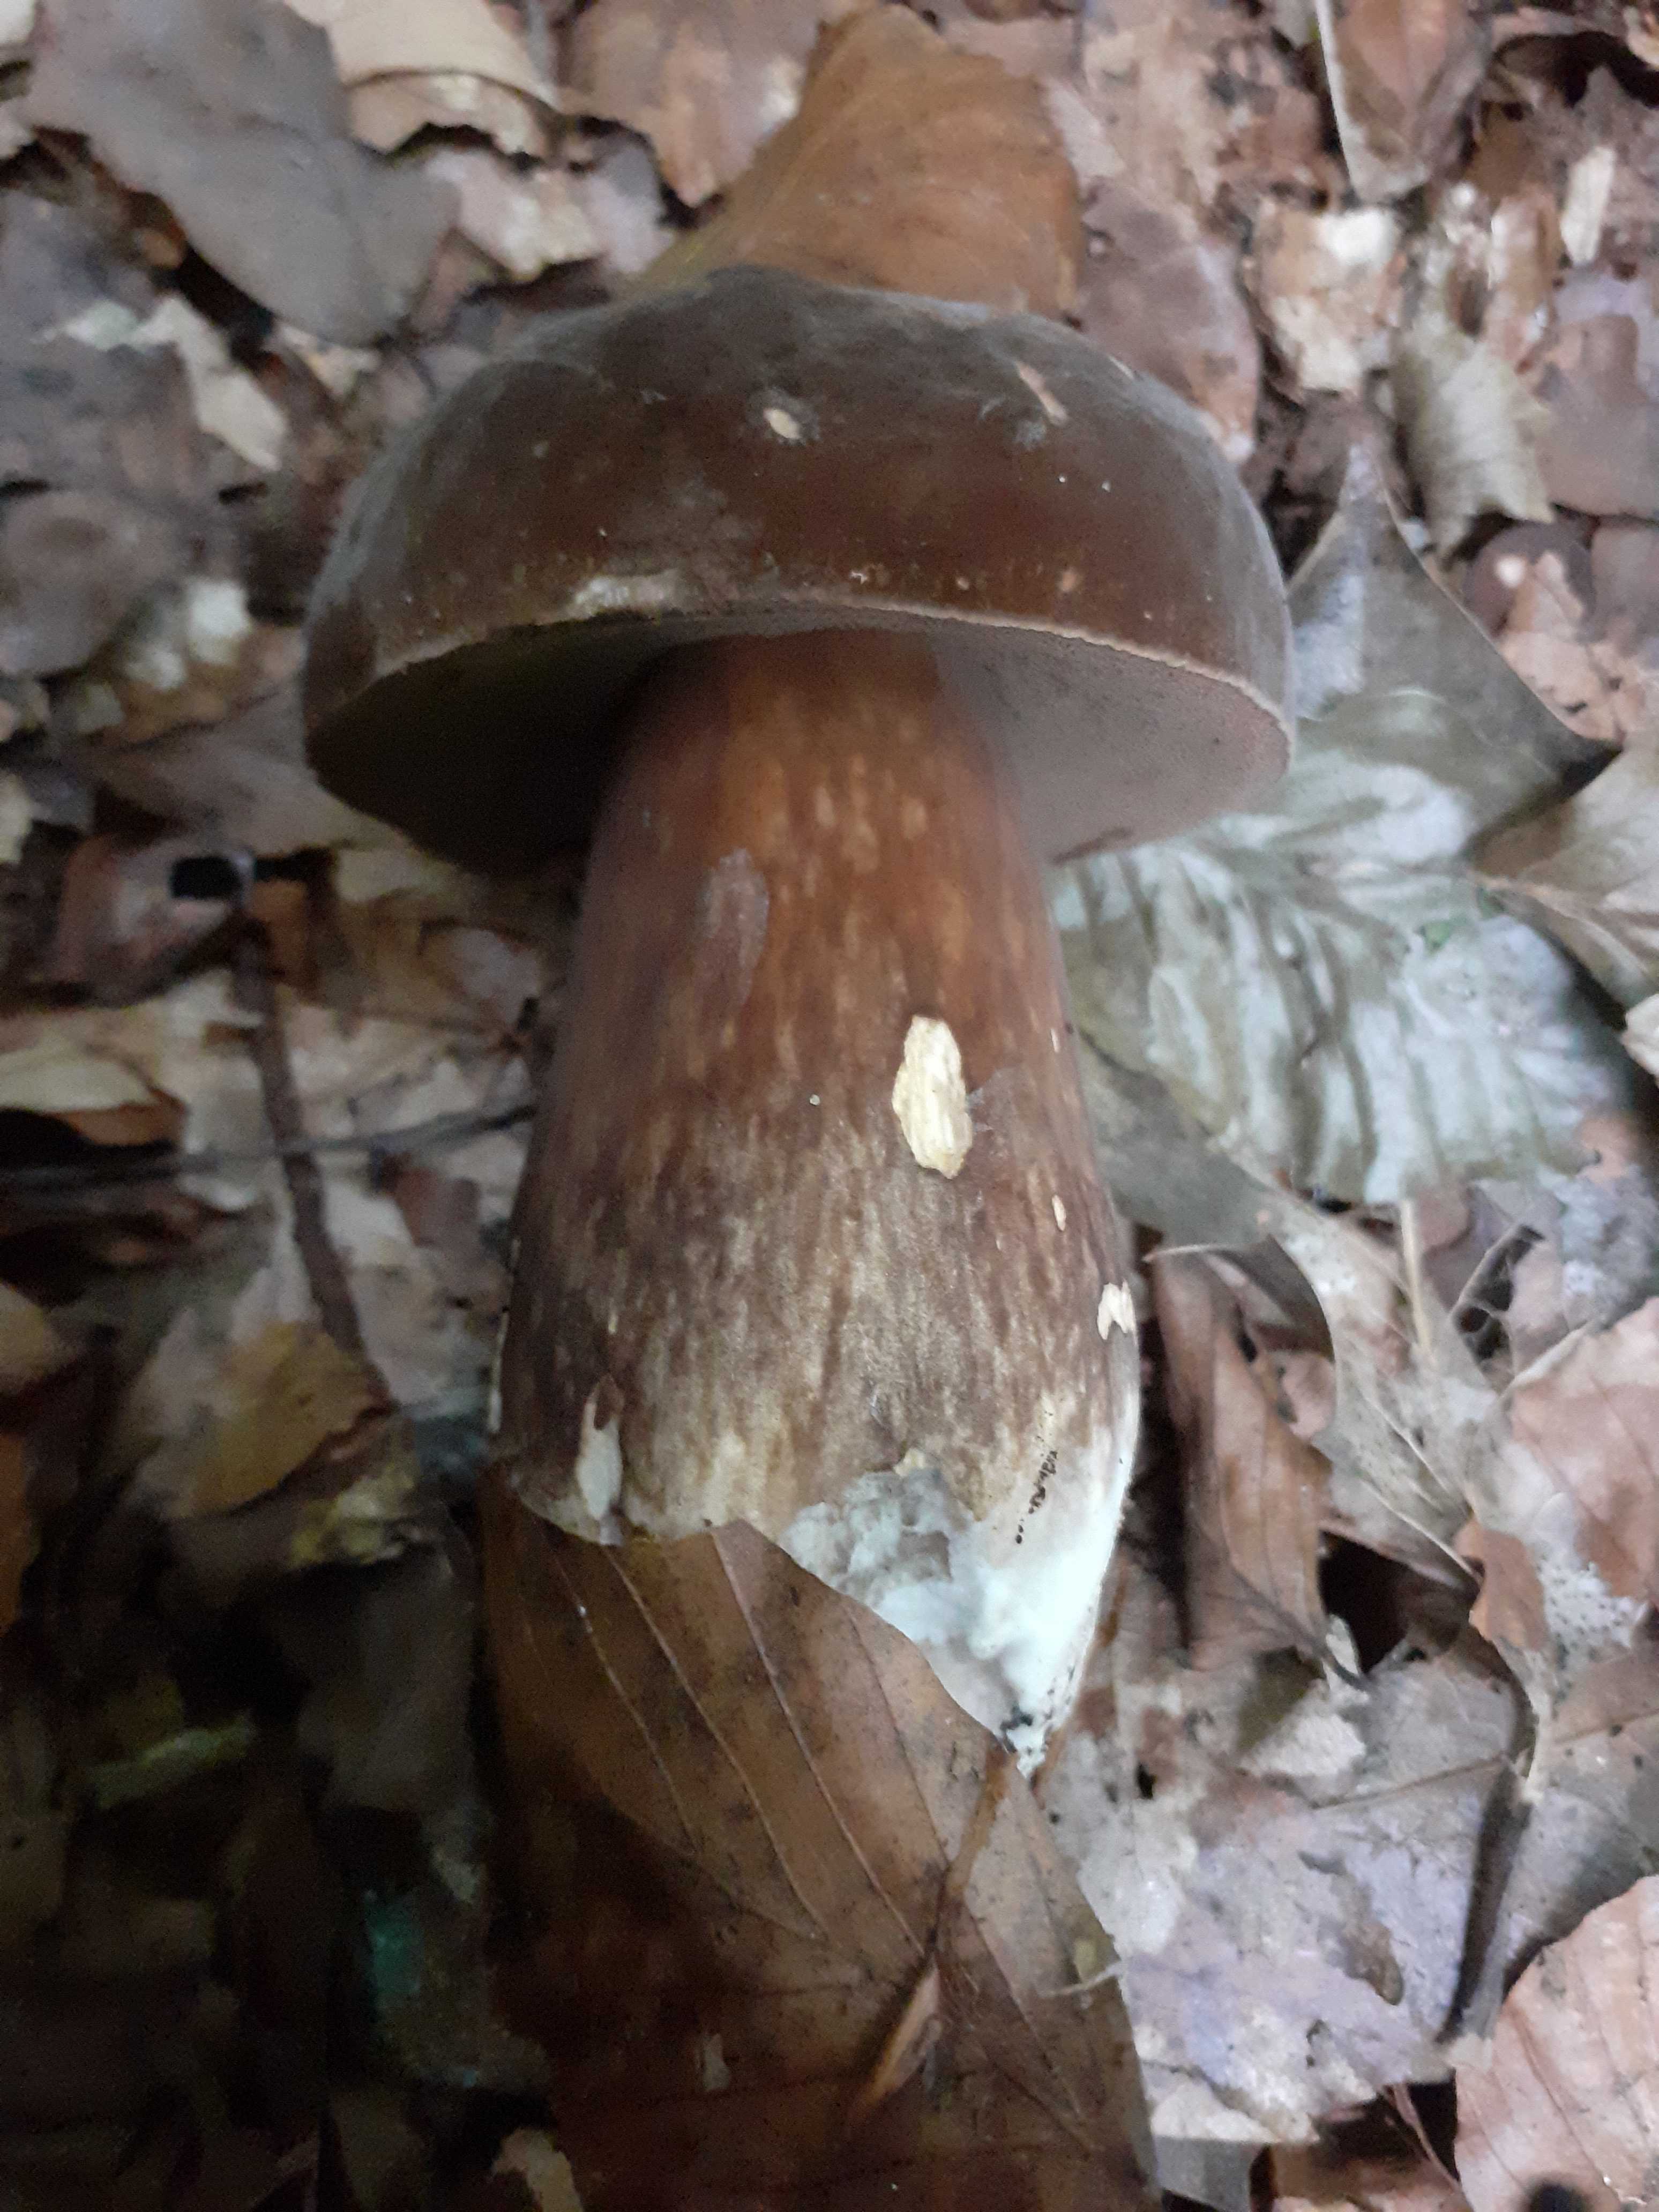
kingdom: Fungi
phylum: Basidiomycota
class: Agaricomycetes
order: Boletales
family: Boletaceae
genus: Porphyrellus
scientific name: Porphyrellus porphyrosporus
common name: sodrørhat
